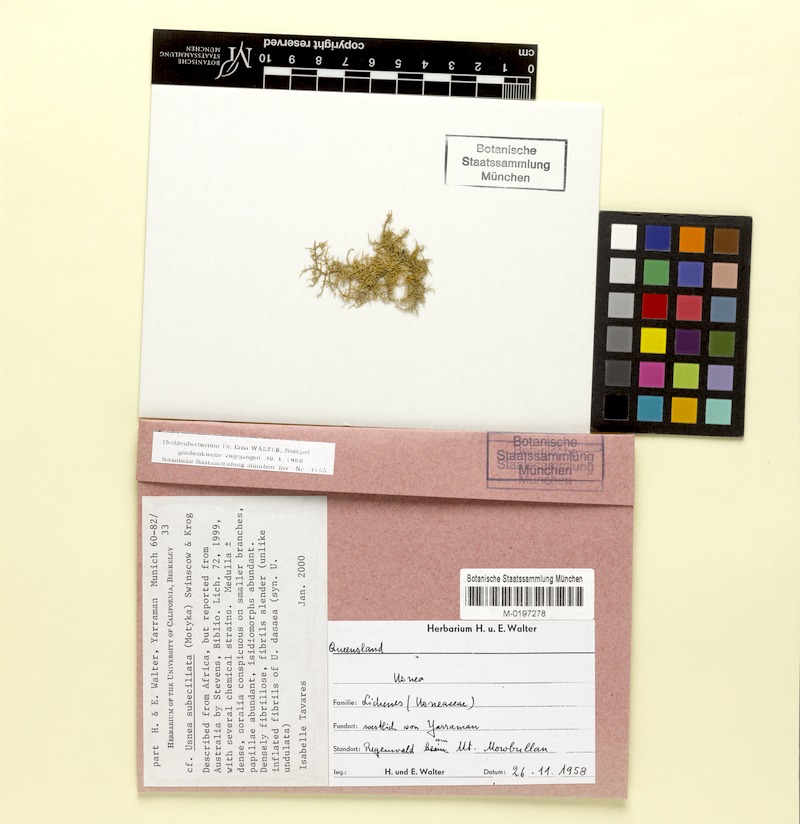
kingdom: Fungi
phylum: Ascomycota
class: Lecanoromycetes
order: Lecanorales
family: Parmeliaceae
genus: Usnea
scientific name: Usnea subeciliata
